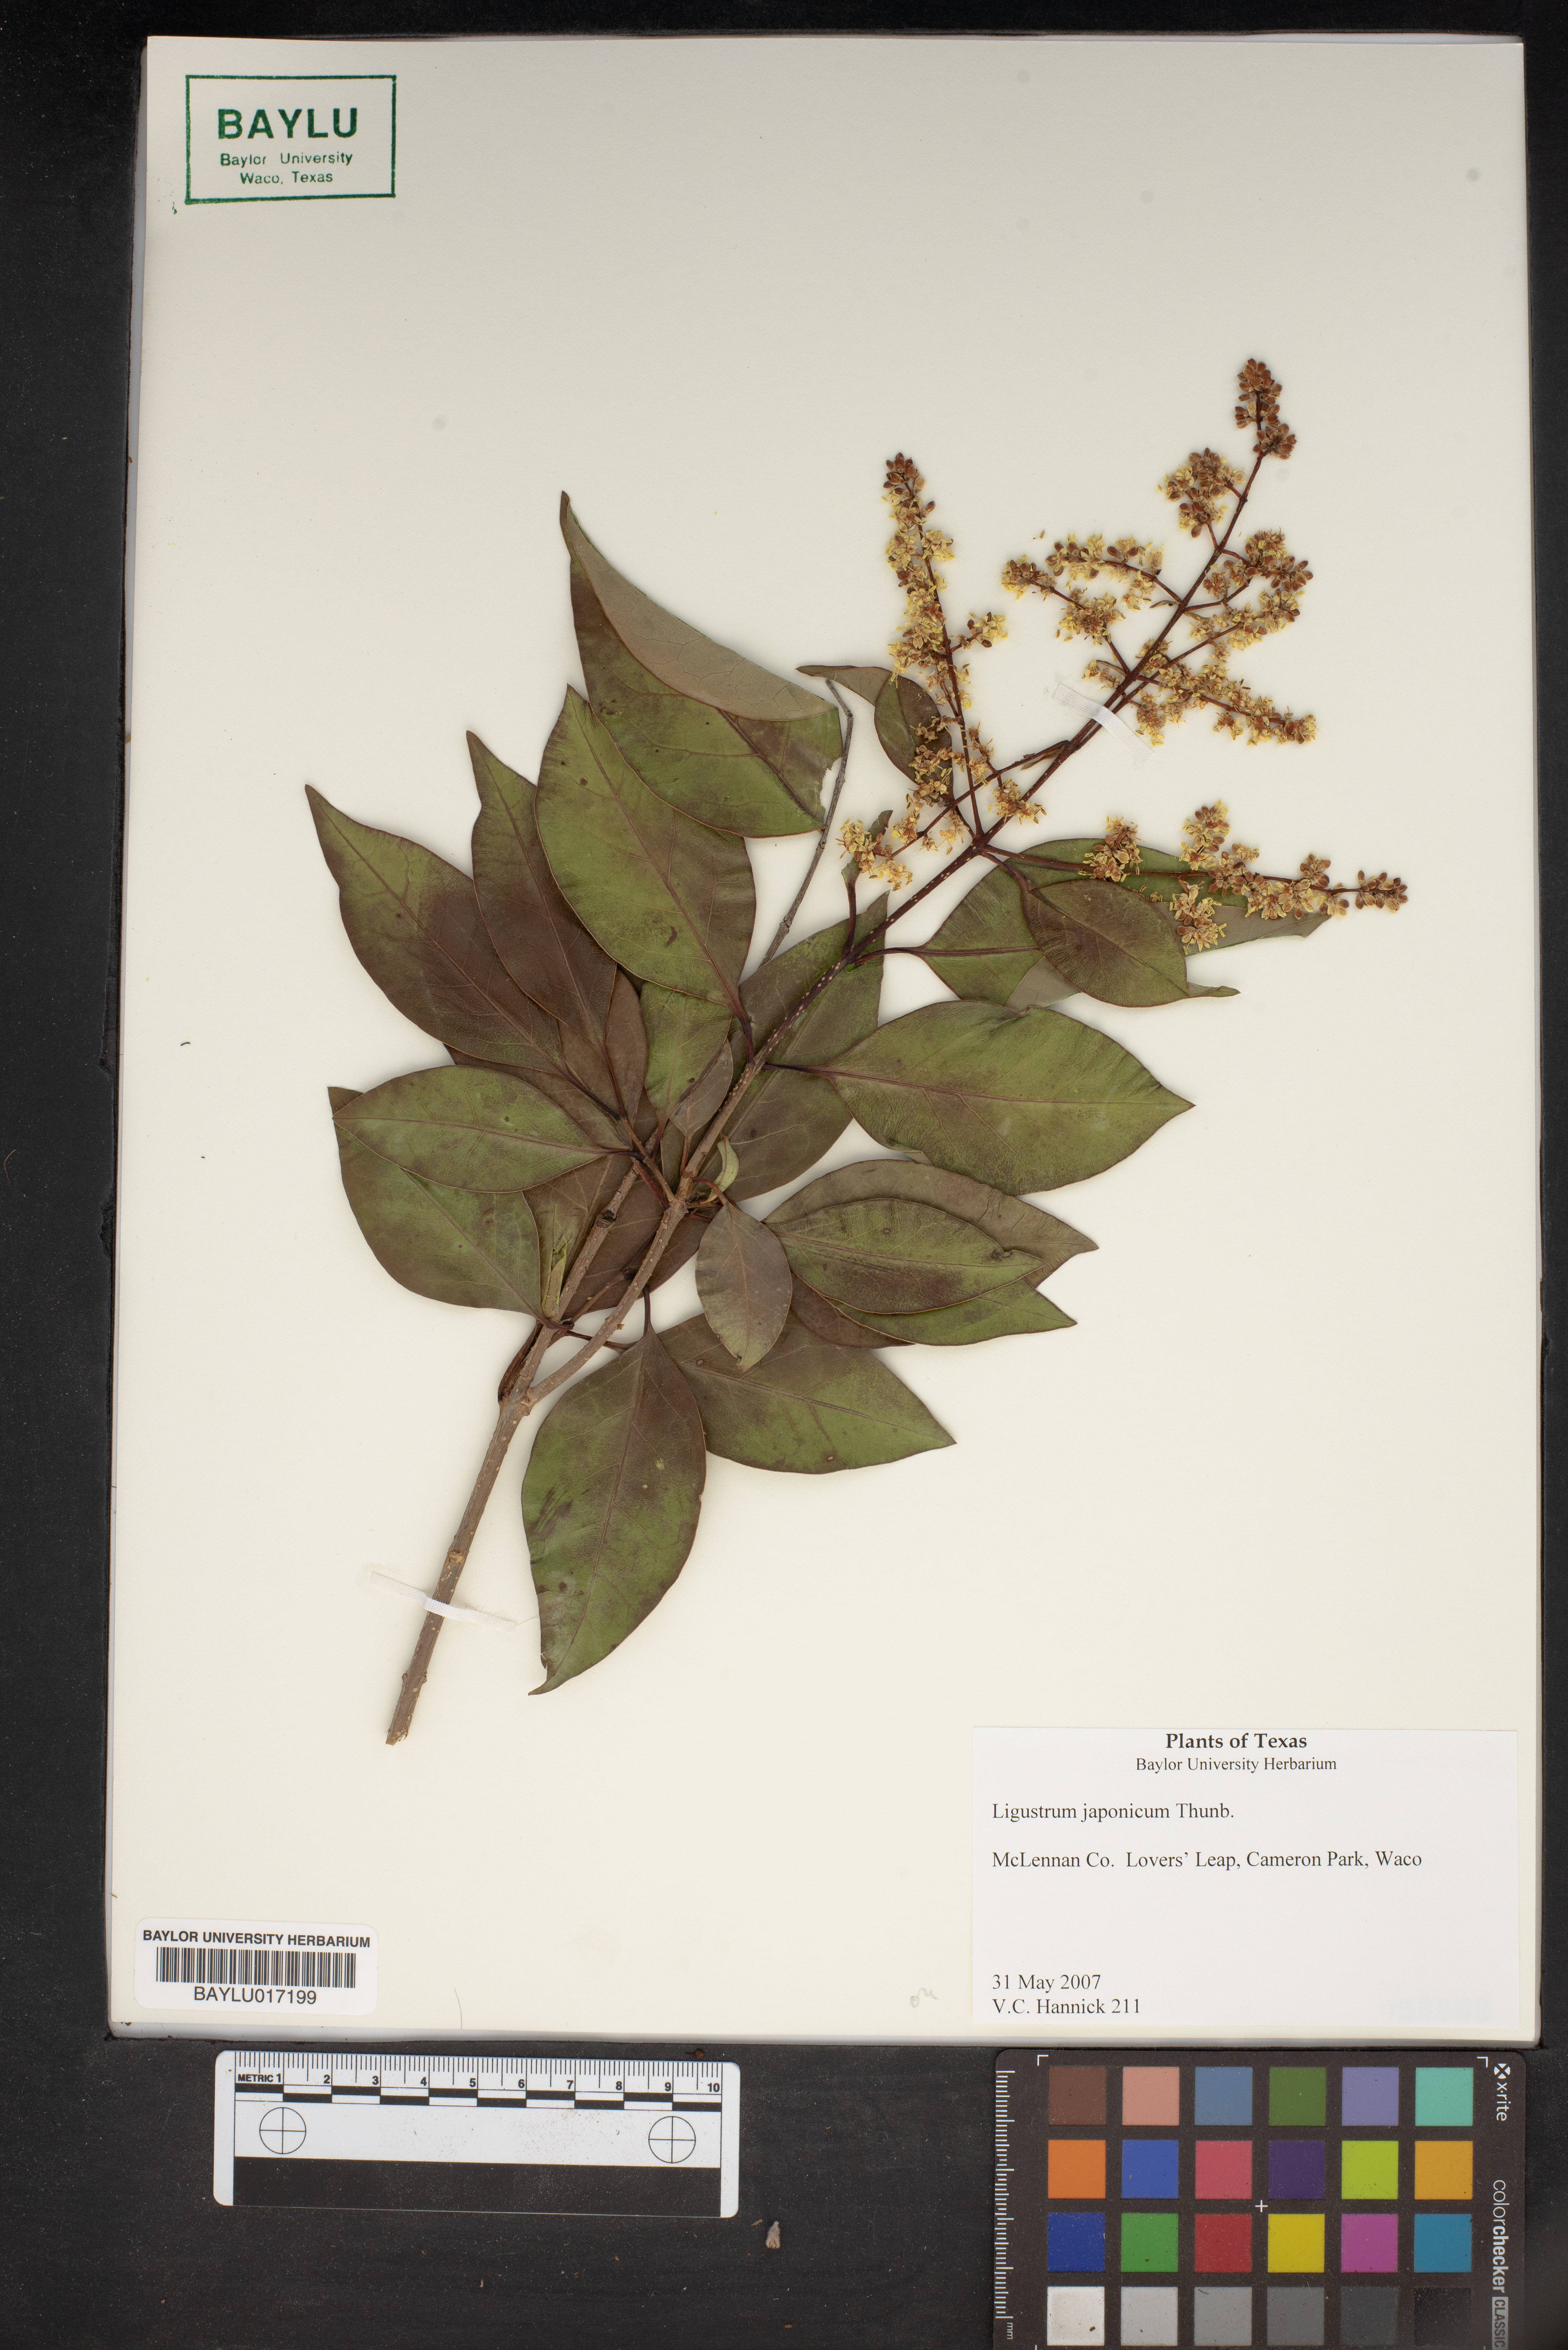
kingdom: Plantae
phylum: Tracheophyta
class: Magnoliopsida
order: Lamiales
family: Oleaceae
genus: Ligustrum
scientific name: Ligustrum japonicum
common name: Japanese privet
